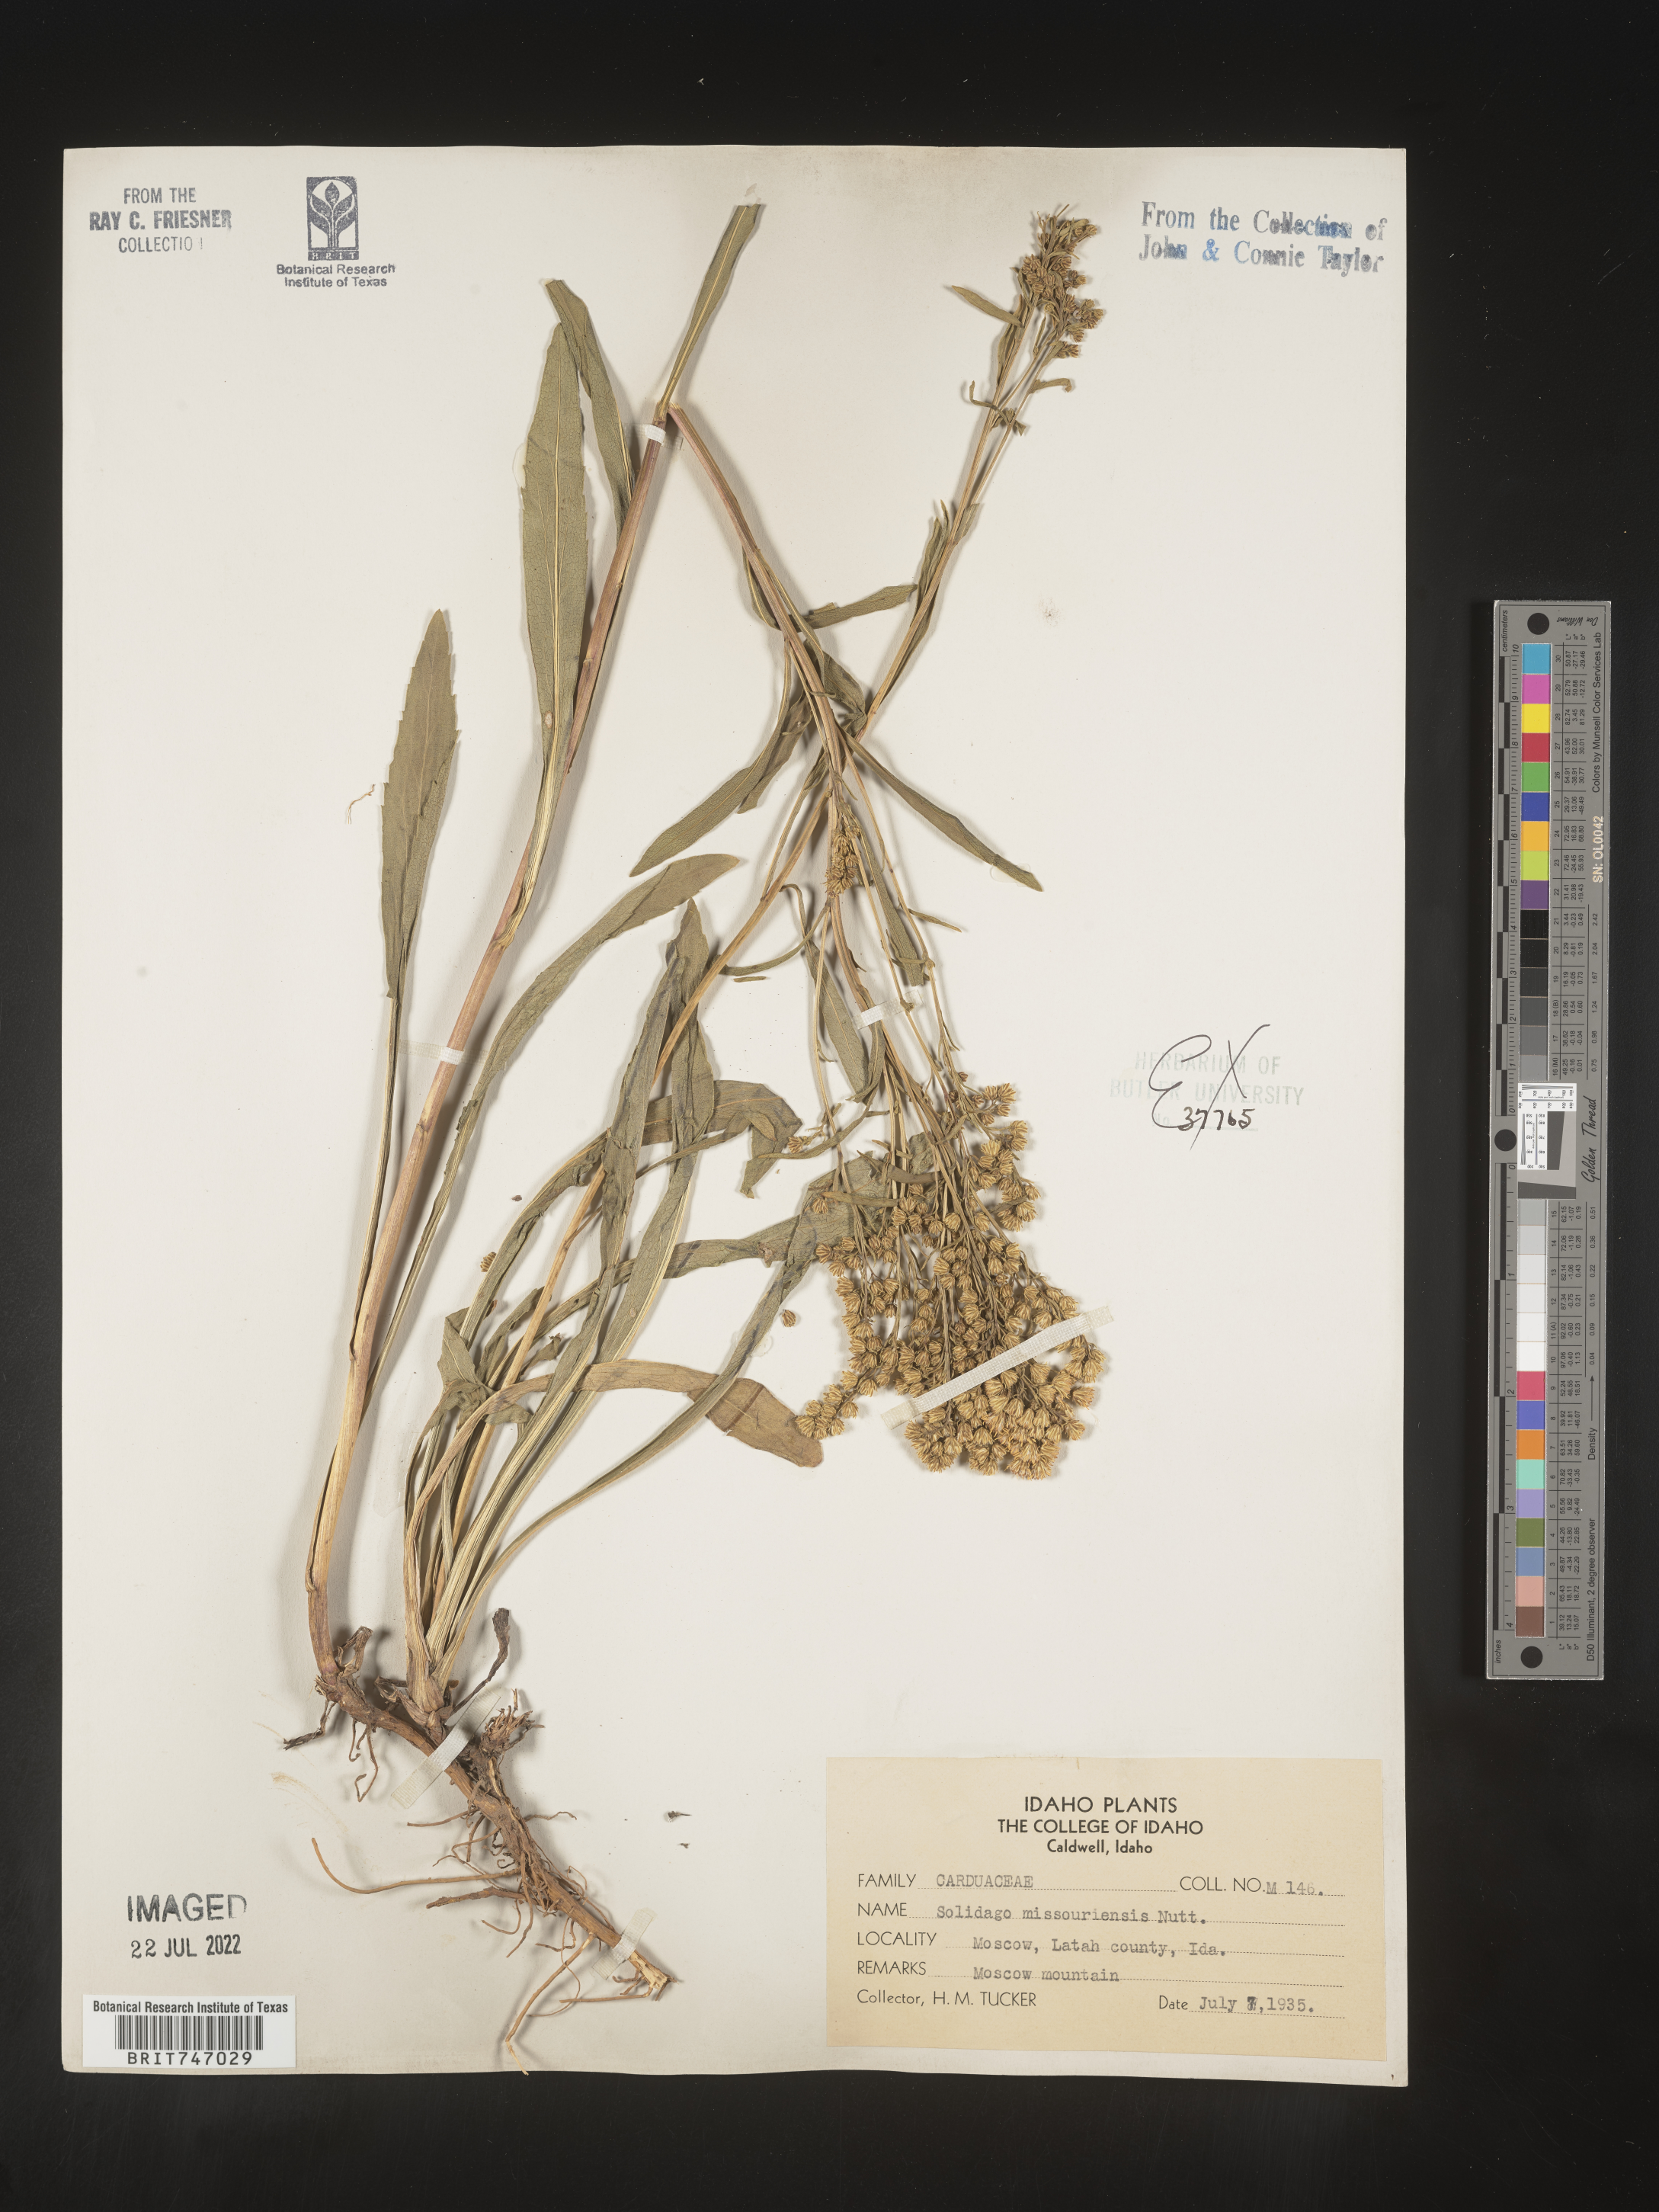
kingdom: Plantae
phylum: Tracheophyta
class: Magnoliopsida
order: Asterales
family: Asteraceae
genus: Solidago
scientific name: Solidago missouriensis
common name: Prairie goldenrod
